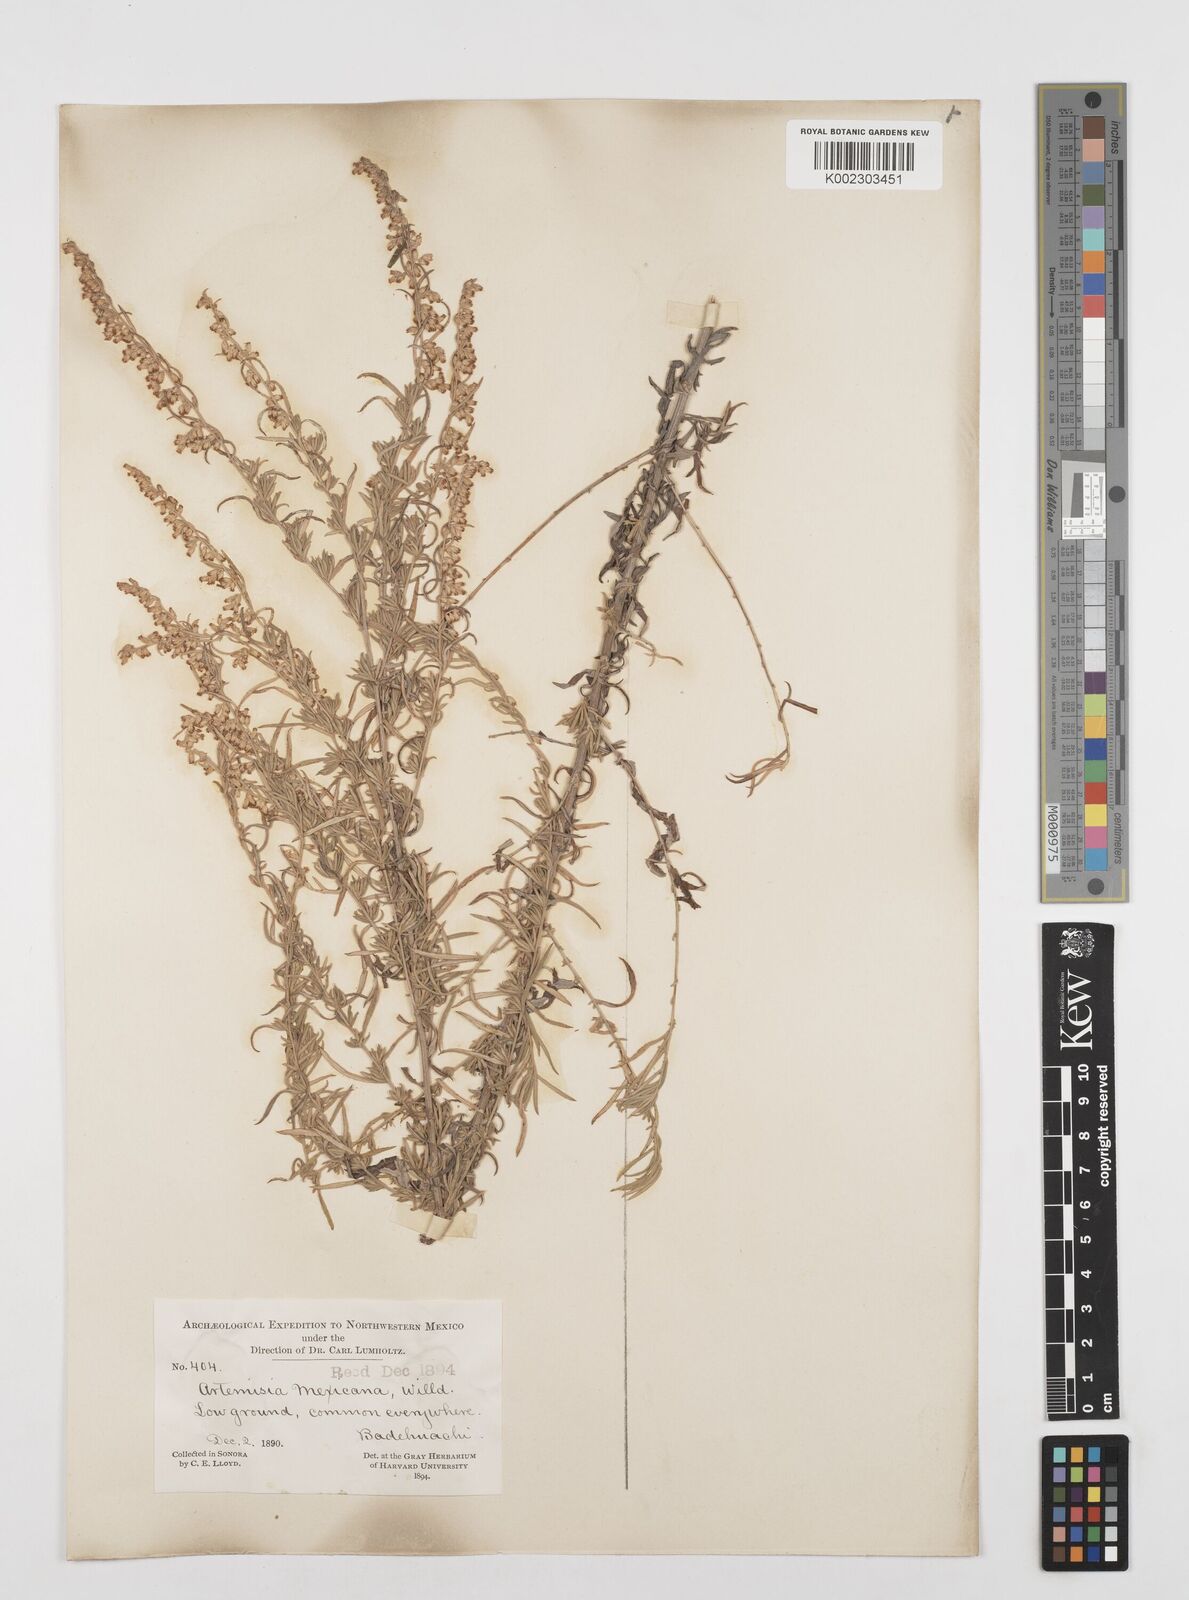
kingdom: Plantae
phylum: Tracheophyta
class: Magnoliopsida
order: Asterales
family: Asteraceae
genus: Artemisia
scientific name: Artemisia ludoviciana
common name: Western mugwort
